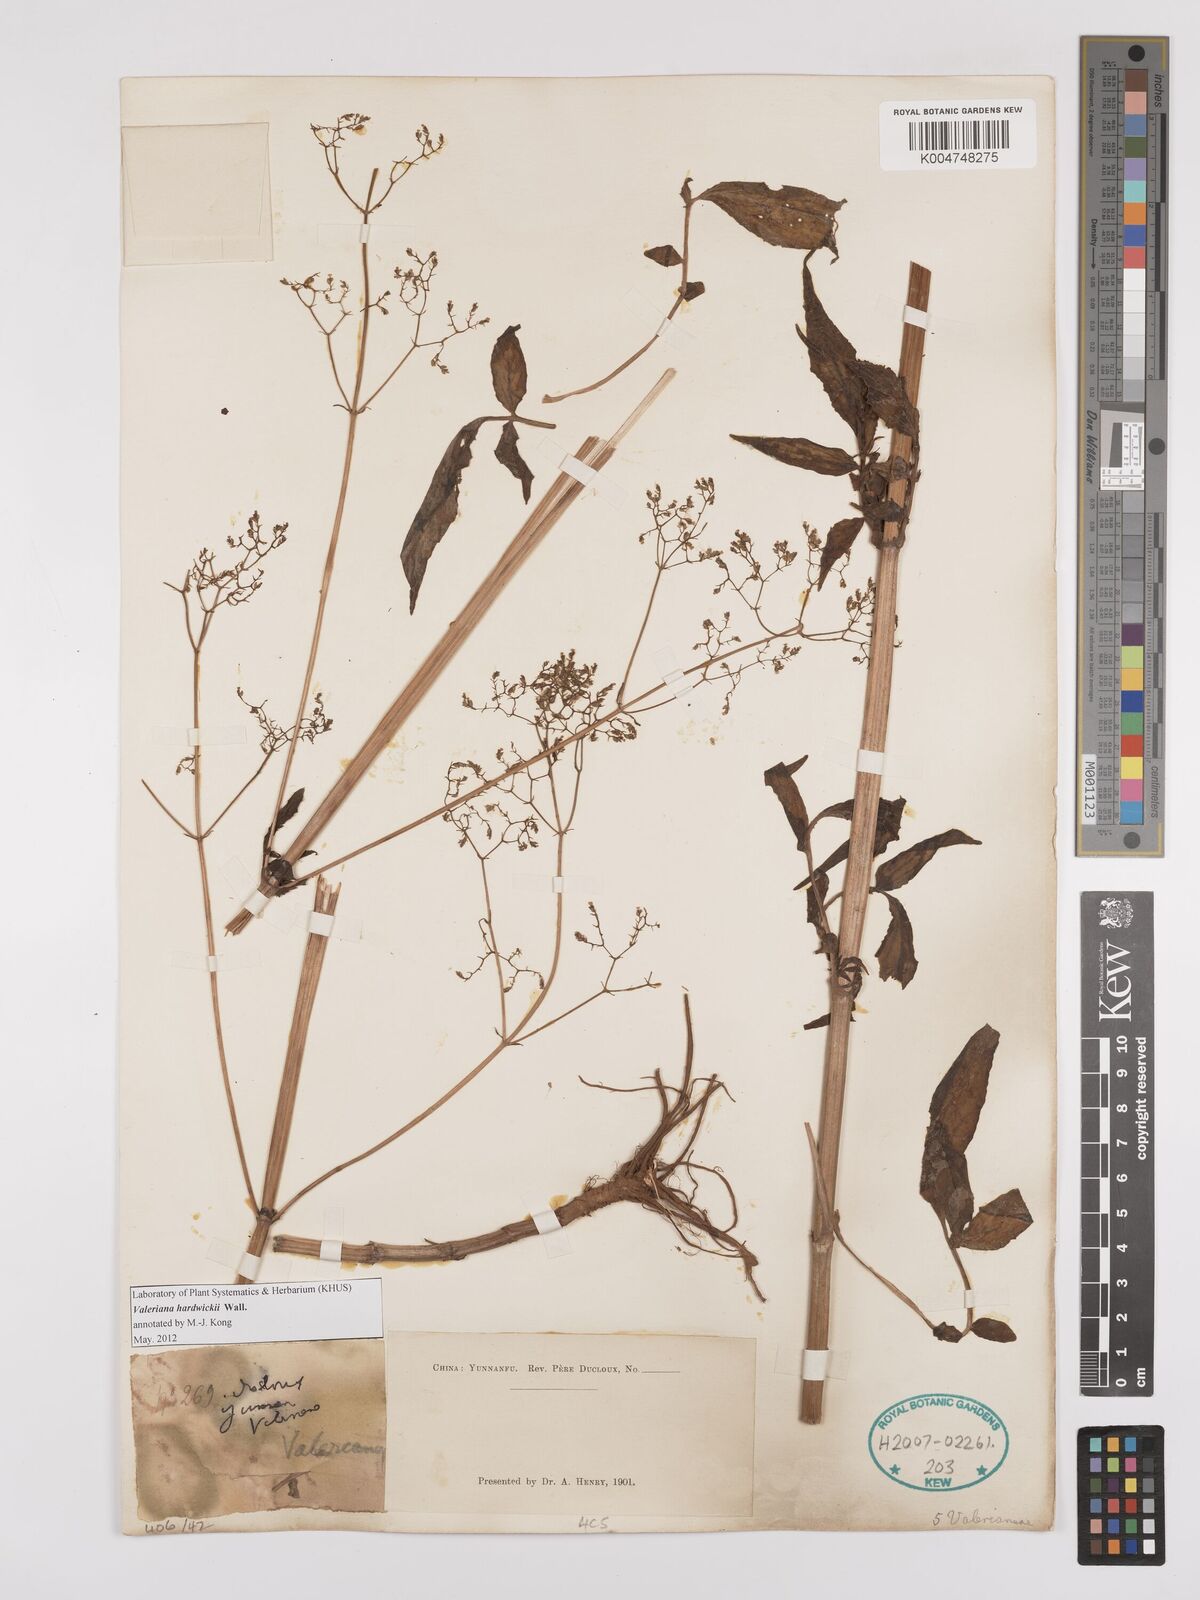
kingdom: Plantae
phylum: Tracheophyta
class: Magnoliopsida
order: Dipsacales
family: Caprifoliaceae
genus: Valeriana
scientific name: Valeriana hardwickei
